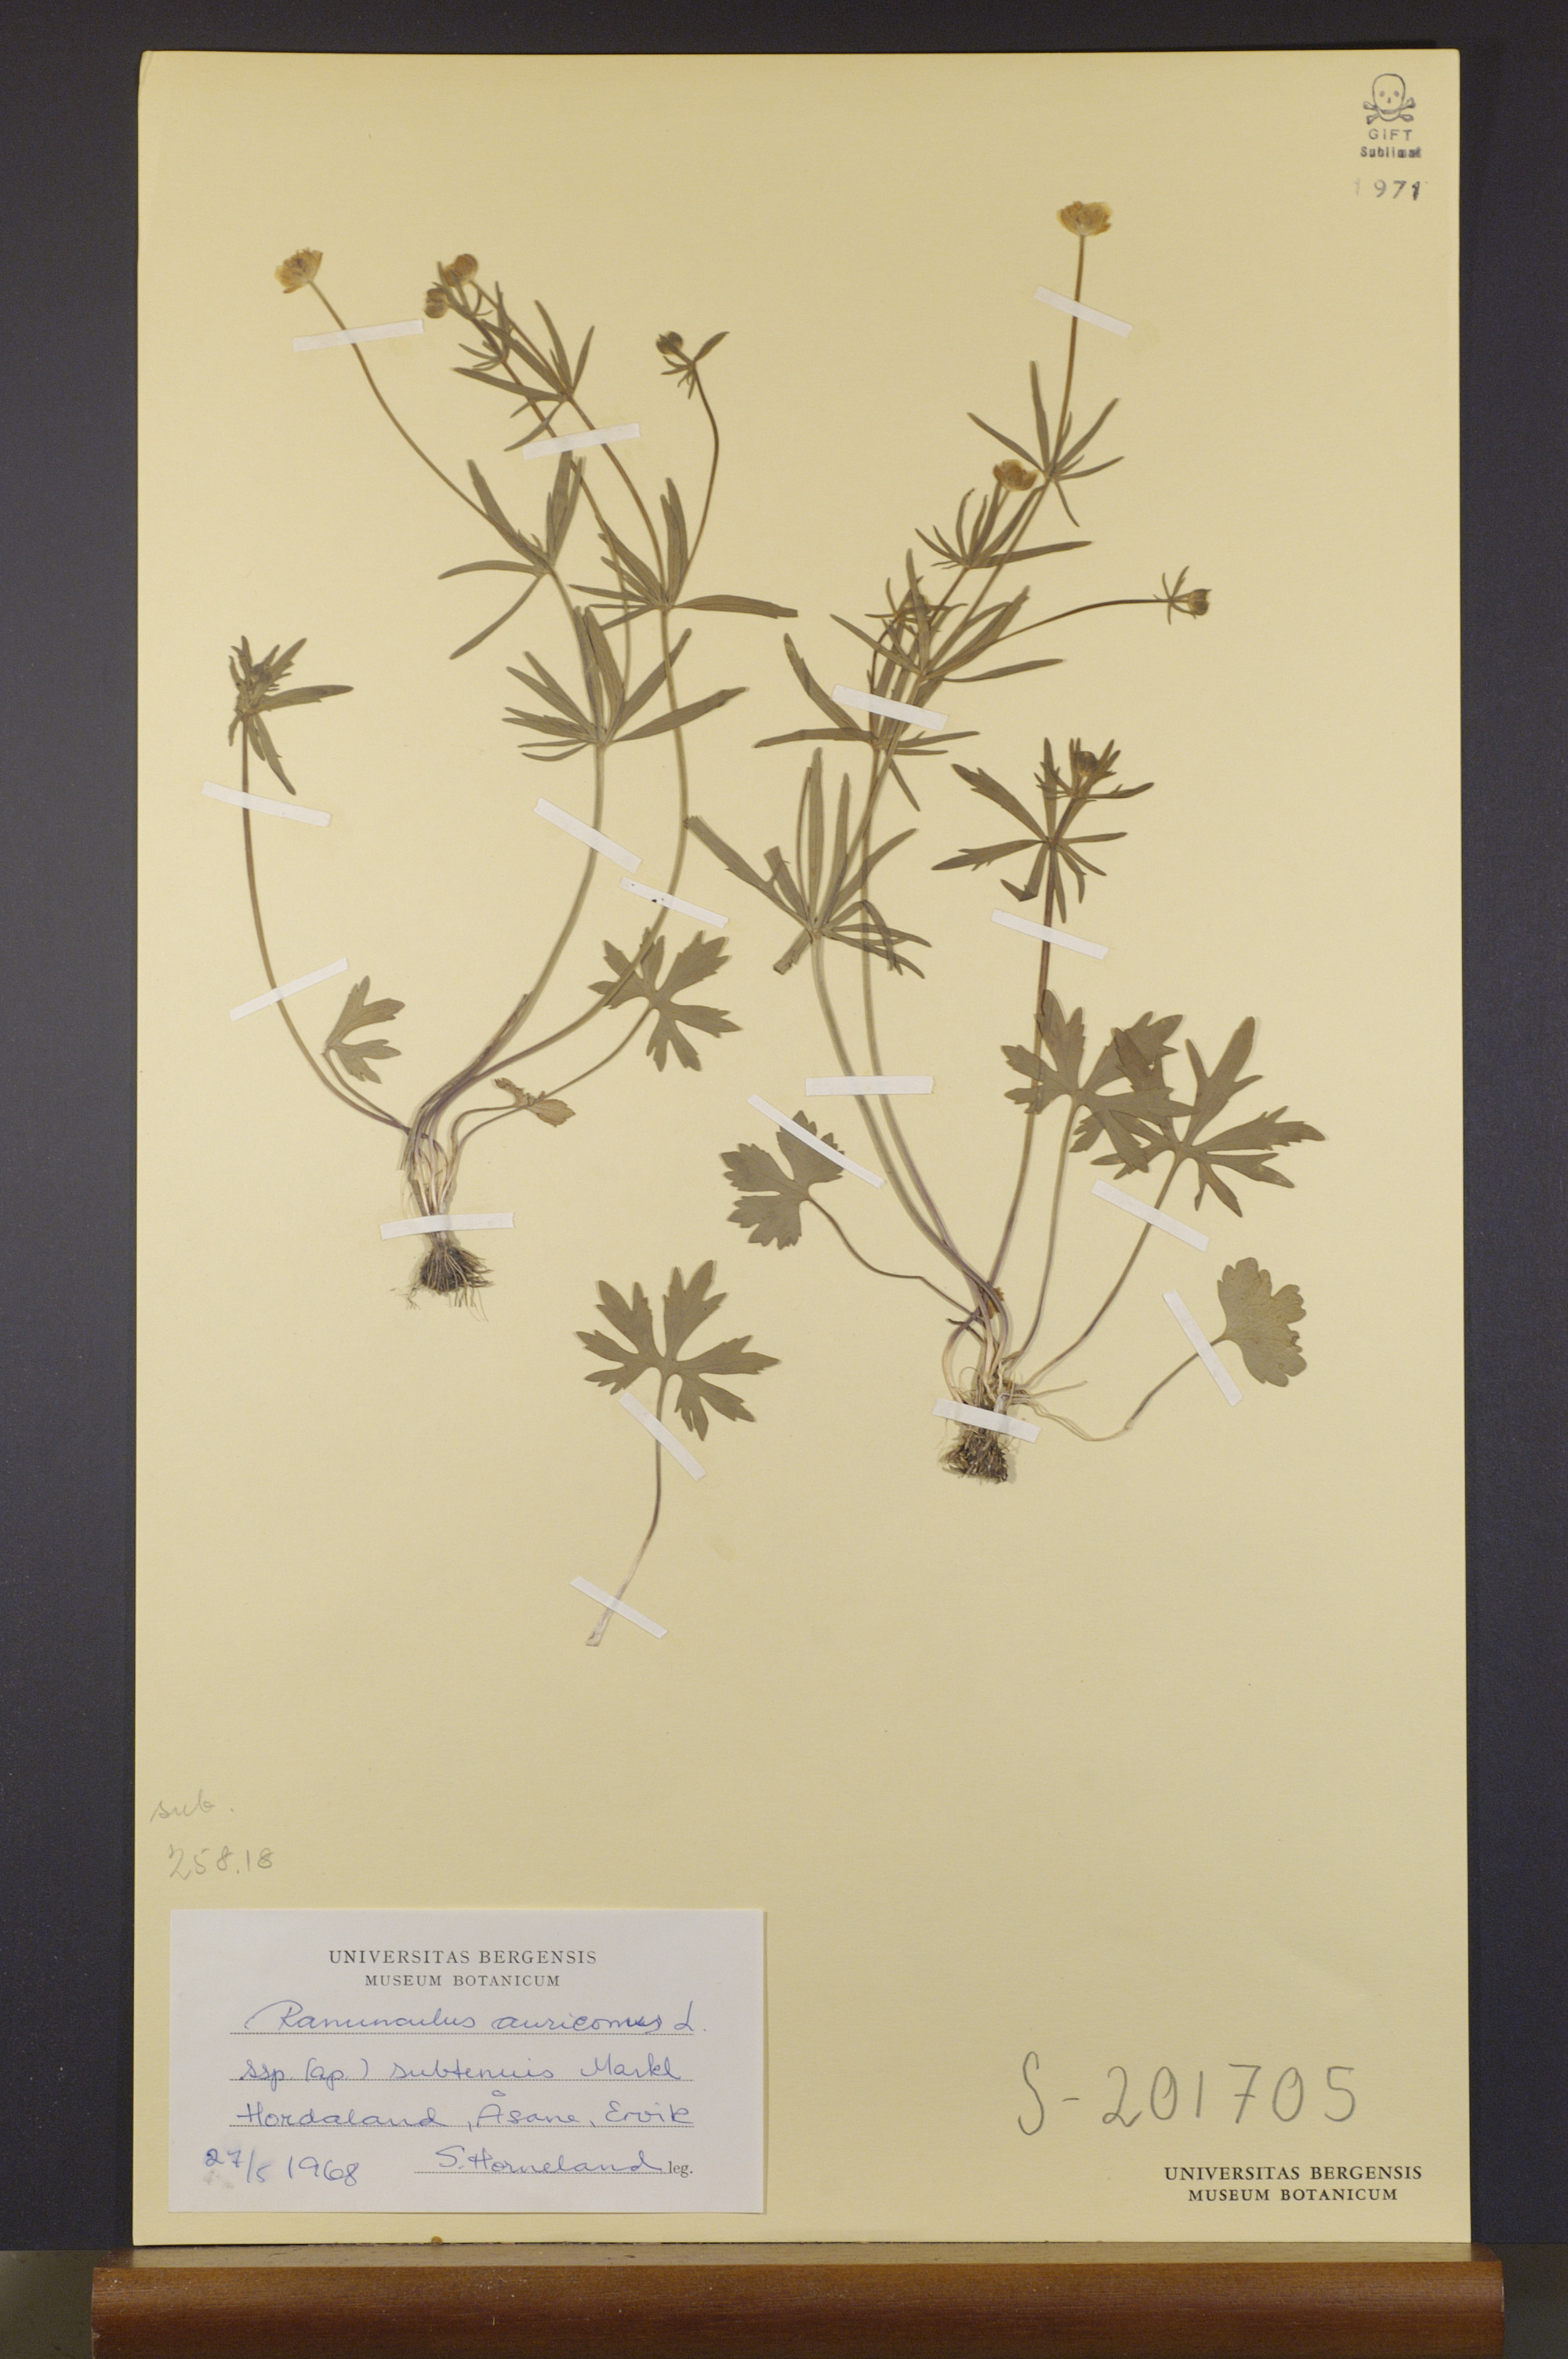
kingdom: Plantae
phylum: Tracheophyta
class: Magnoliopsida
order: Ranunculales
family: Ranunculaceae
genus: Ranunculus
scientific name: Ranunculus subtenuis
